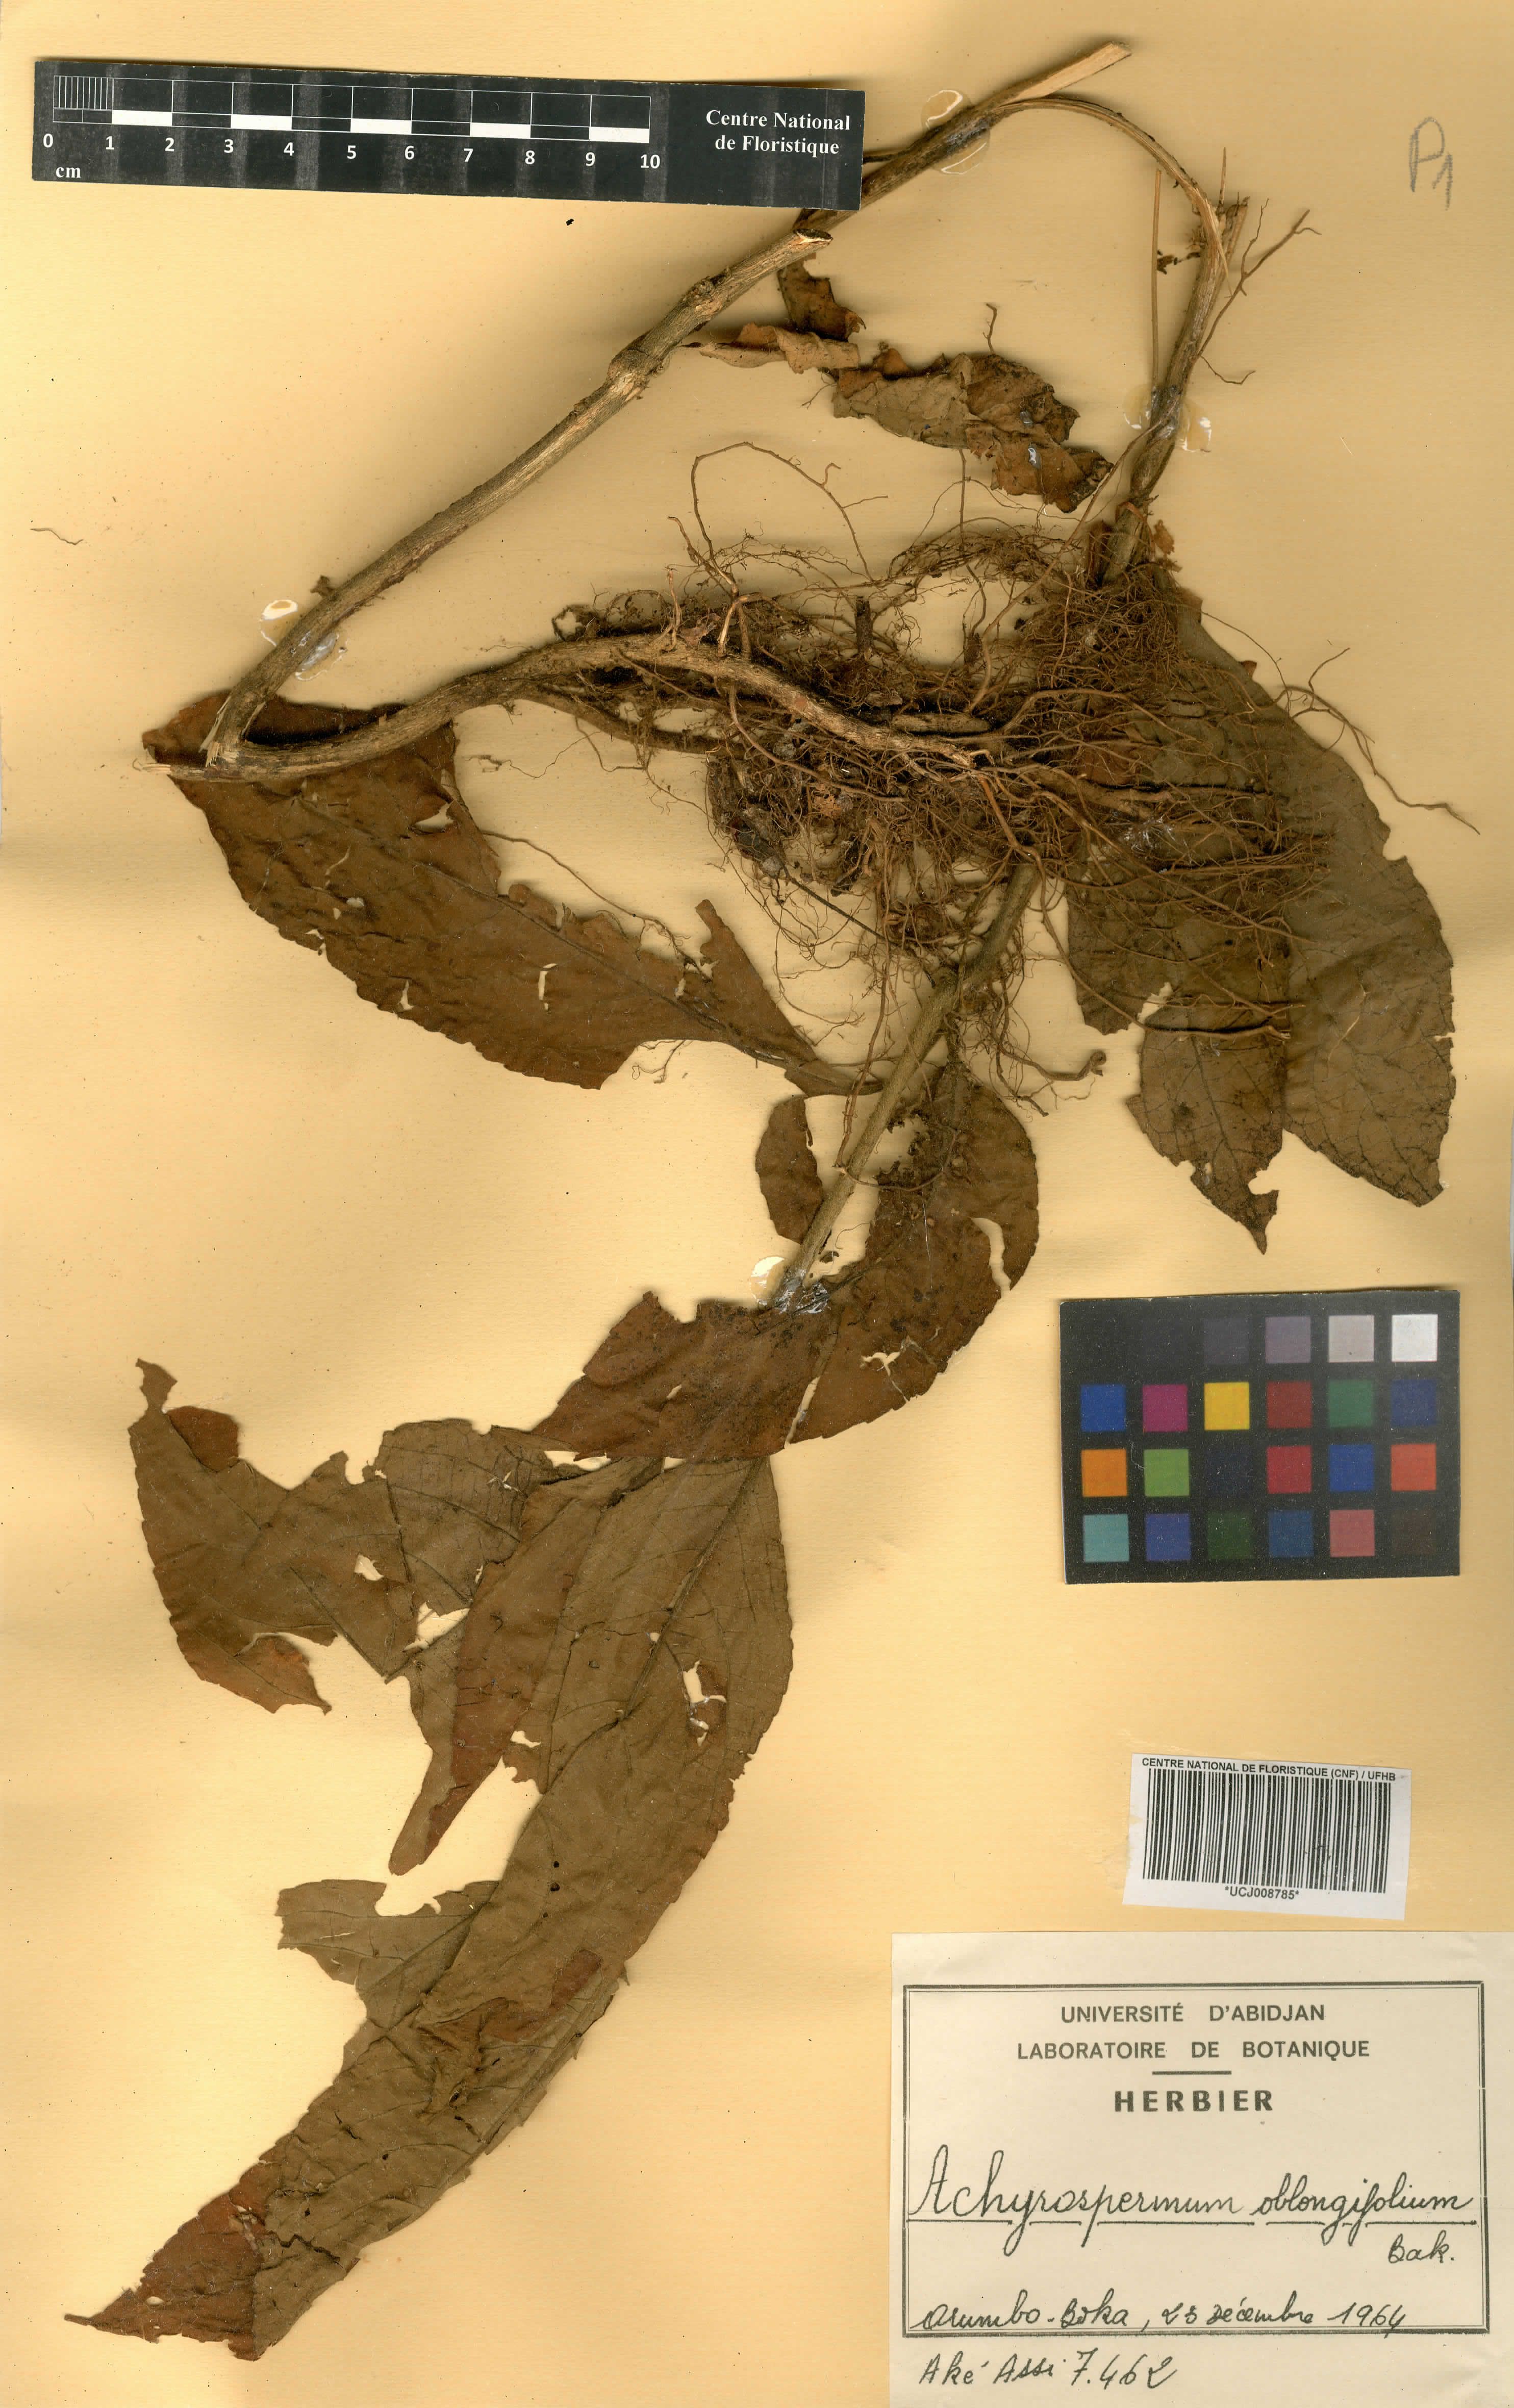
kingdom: Plantae
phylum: Tracheophyta
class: Magnoliopsida
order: Lamiales
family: Lamiaceae
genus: Achyrospermum
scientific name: Achyrospermum oblongifolium
